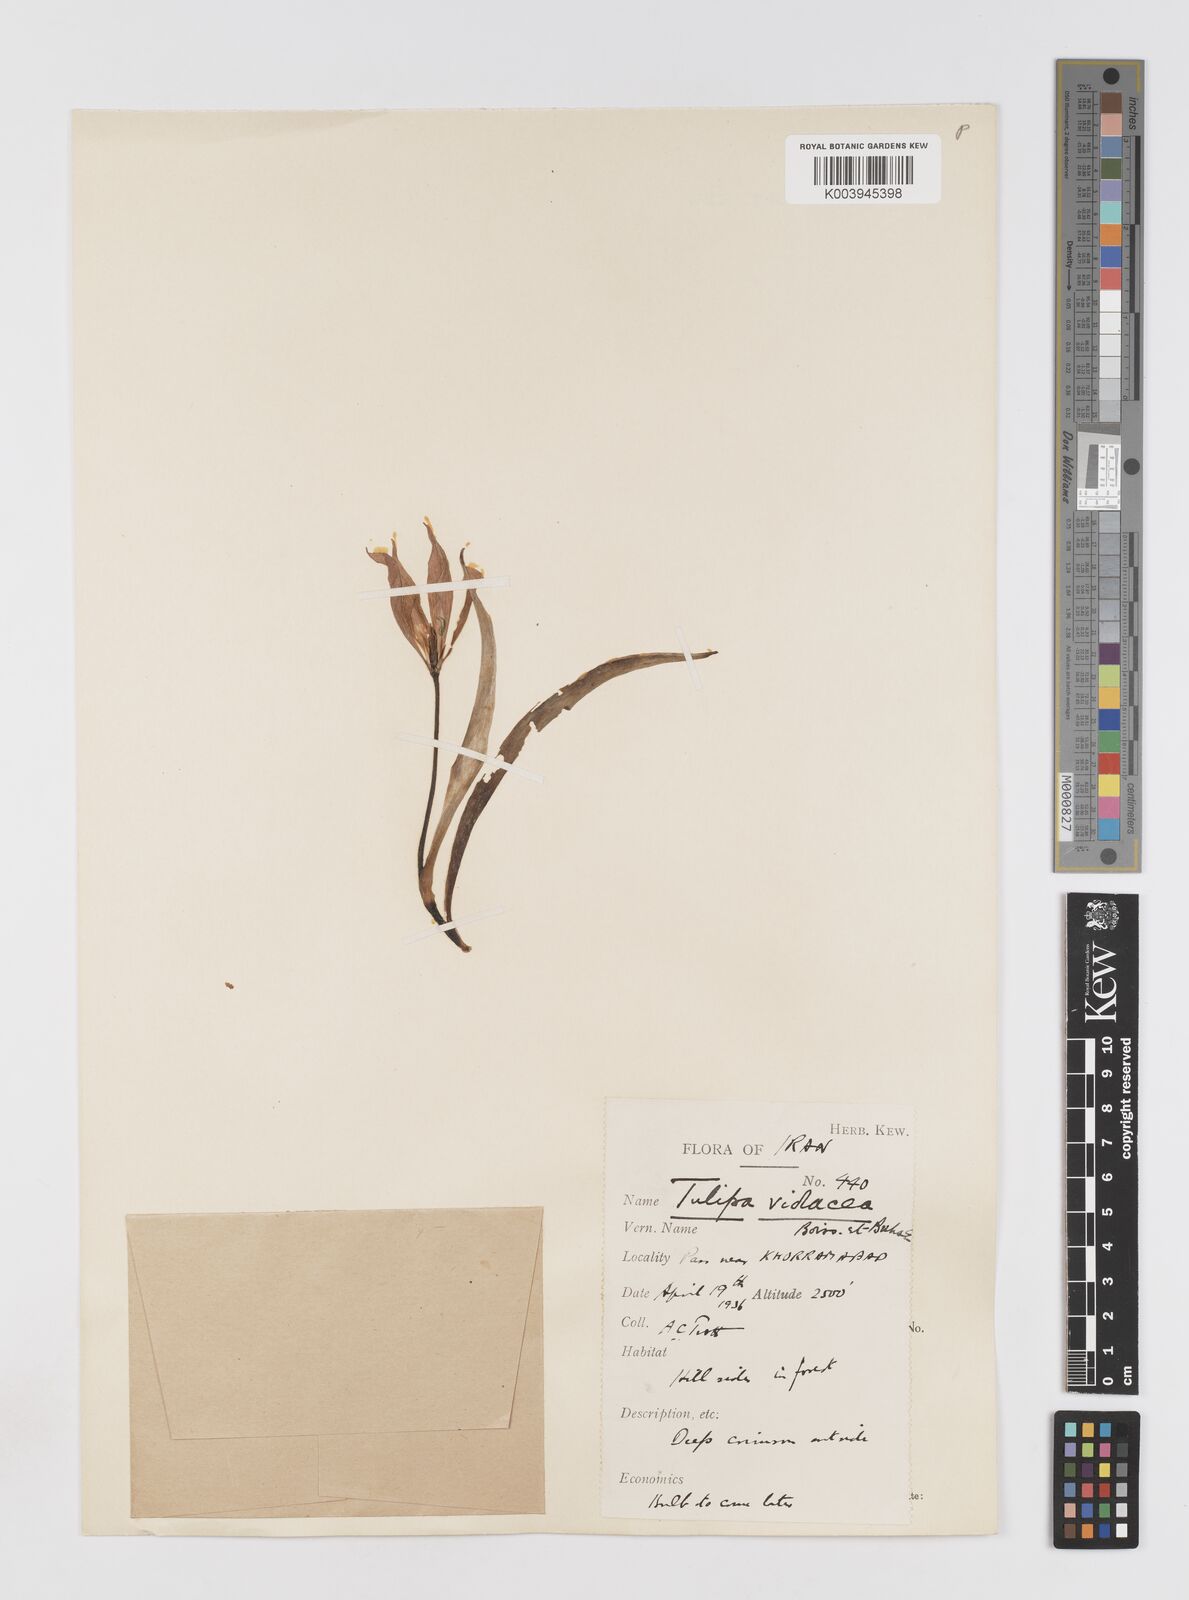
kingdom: Plantae
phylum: Tracheophyta
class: Liliopsida
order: Liliales
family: Liliaceae
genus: Tulipa
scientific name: Tulipa humilis
